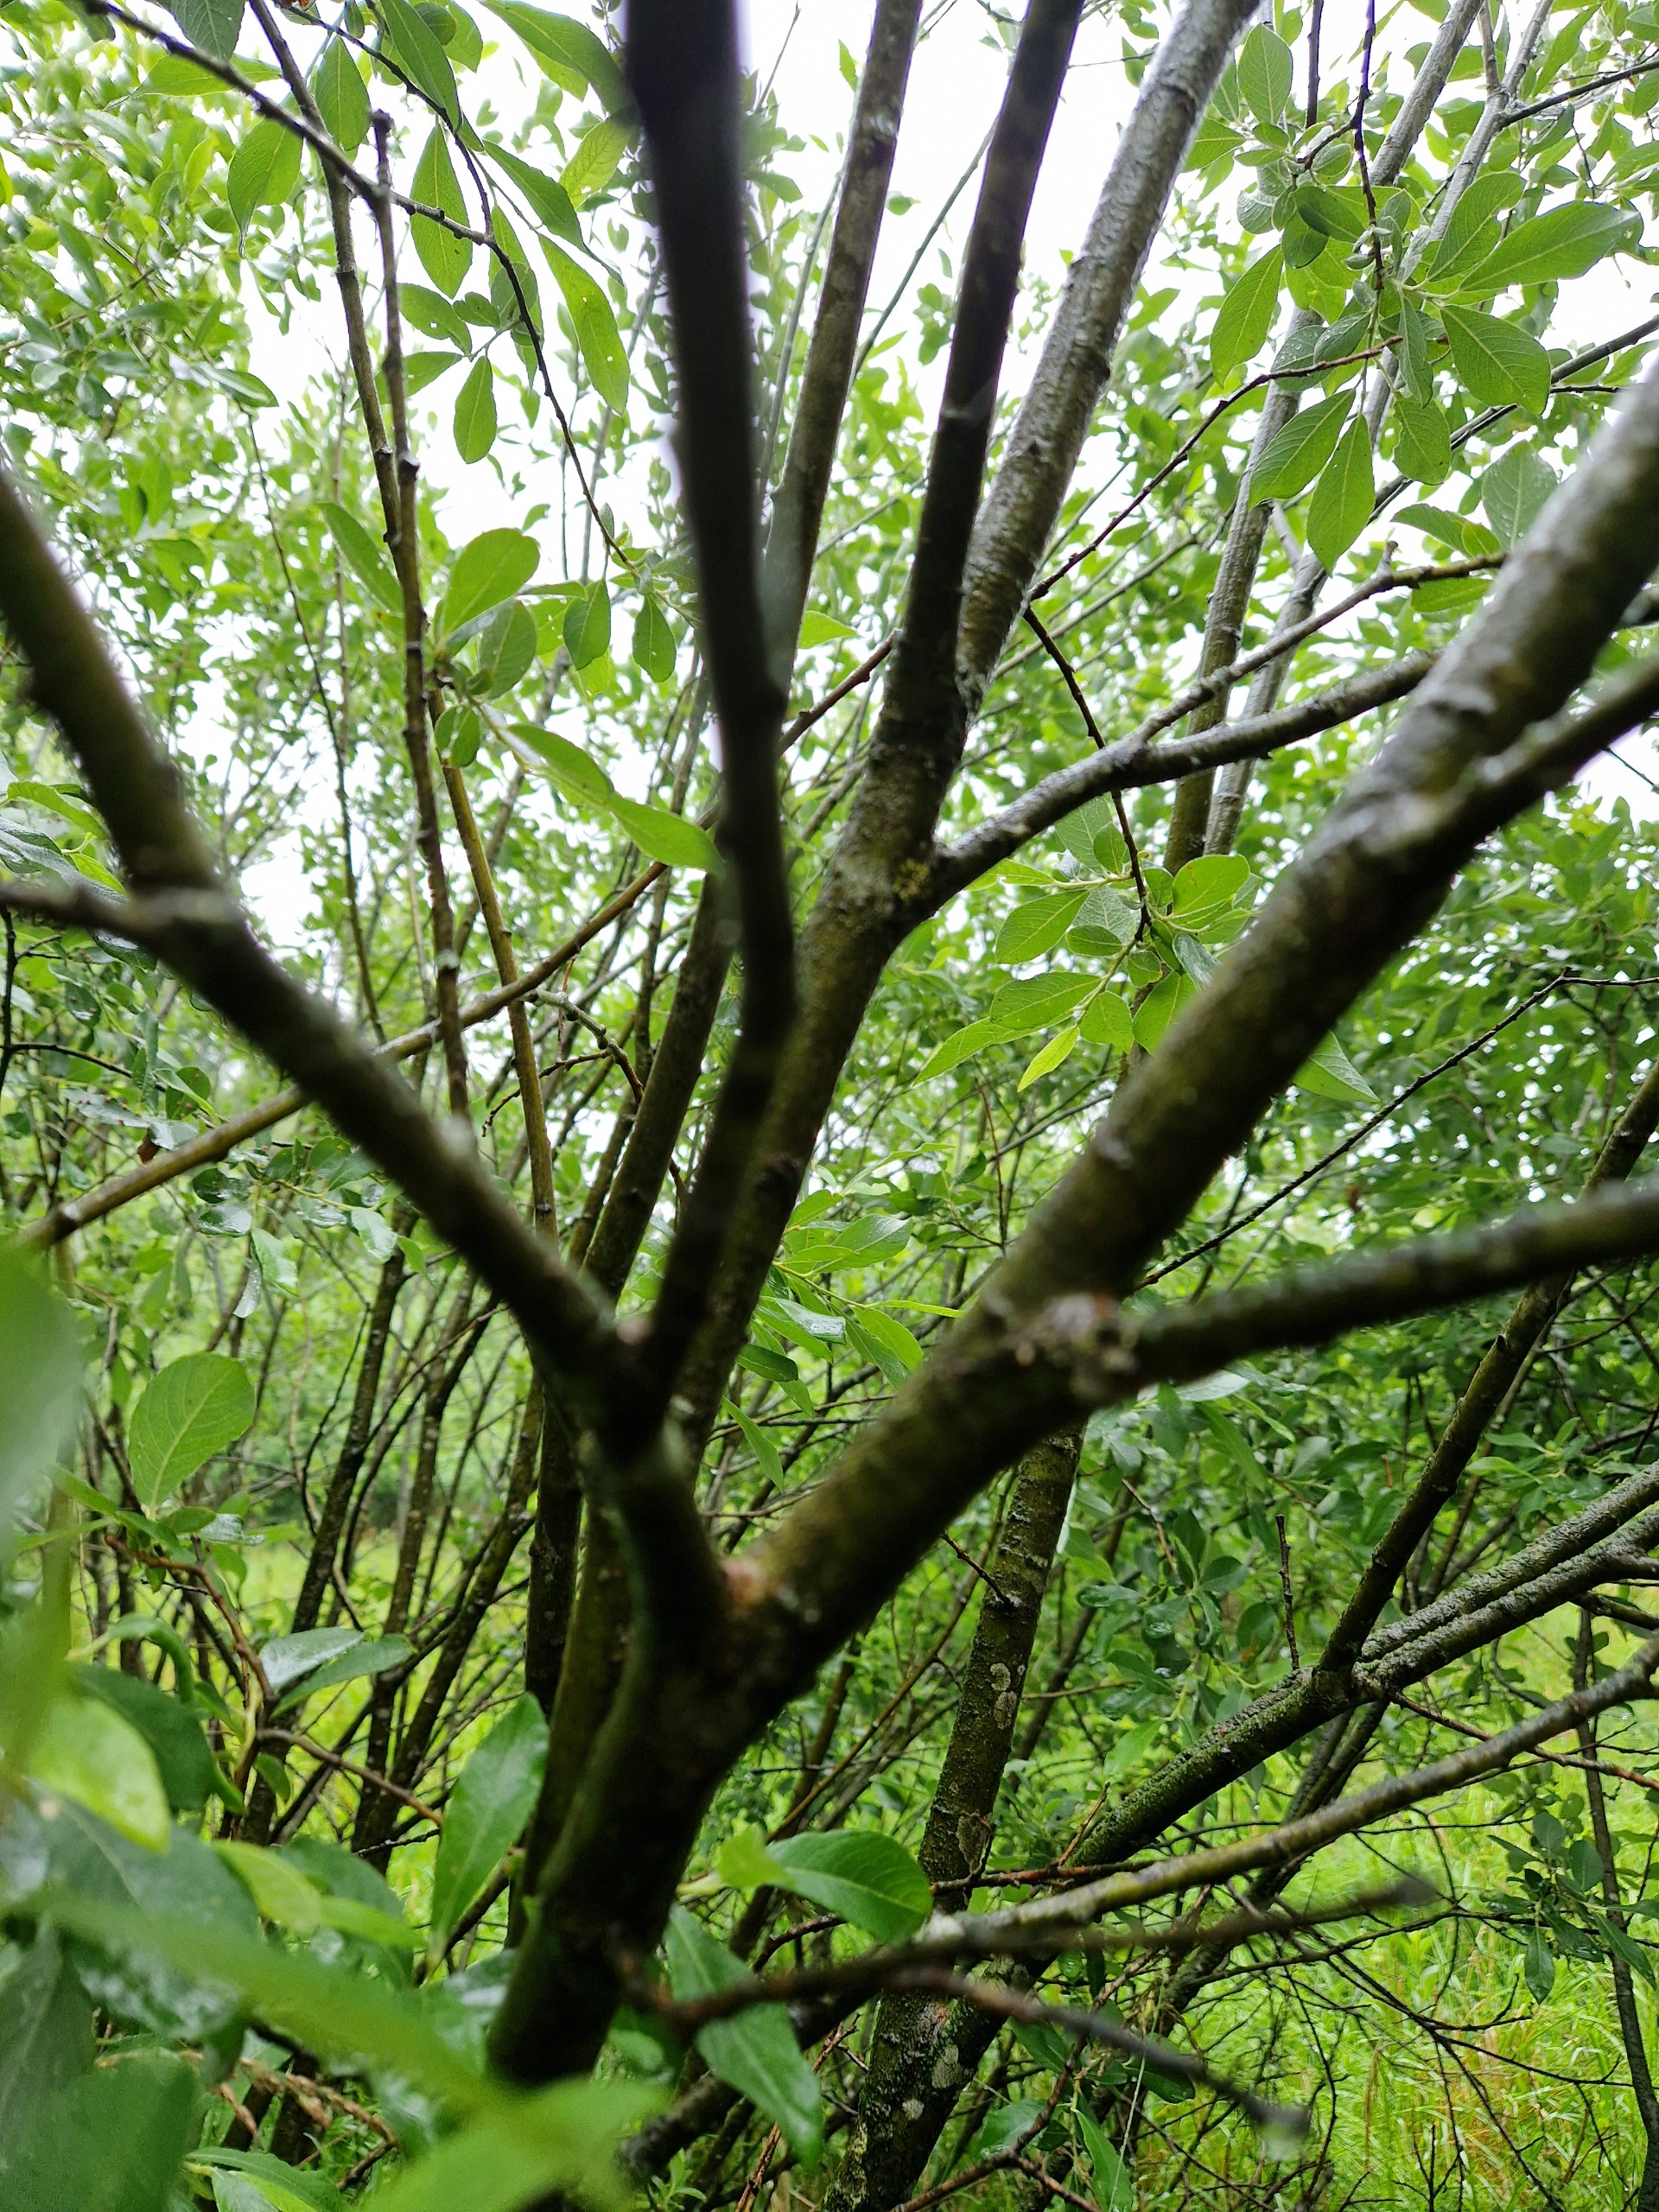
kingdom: Plantae
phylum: Tracheophyta
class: Magnoliopsida
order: Malpighiales
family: Salicaceae
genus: Salix
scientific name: Salix cinerea
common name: Grå-pil
